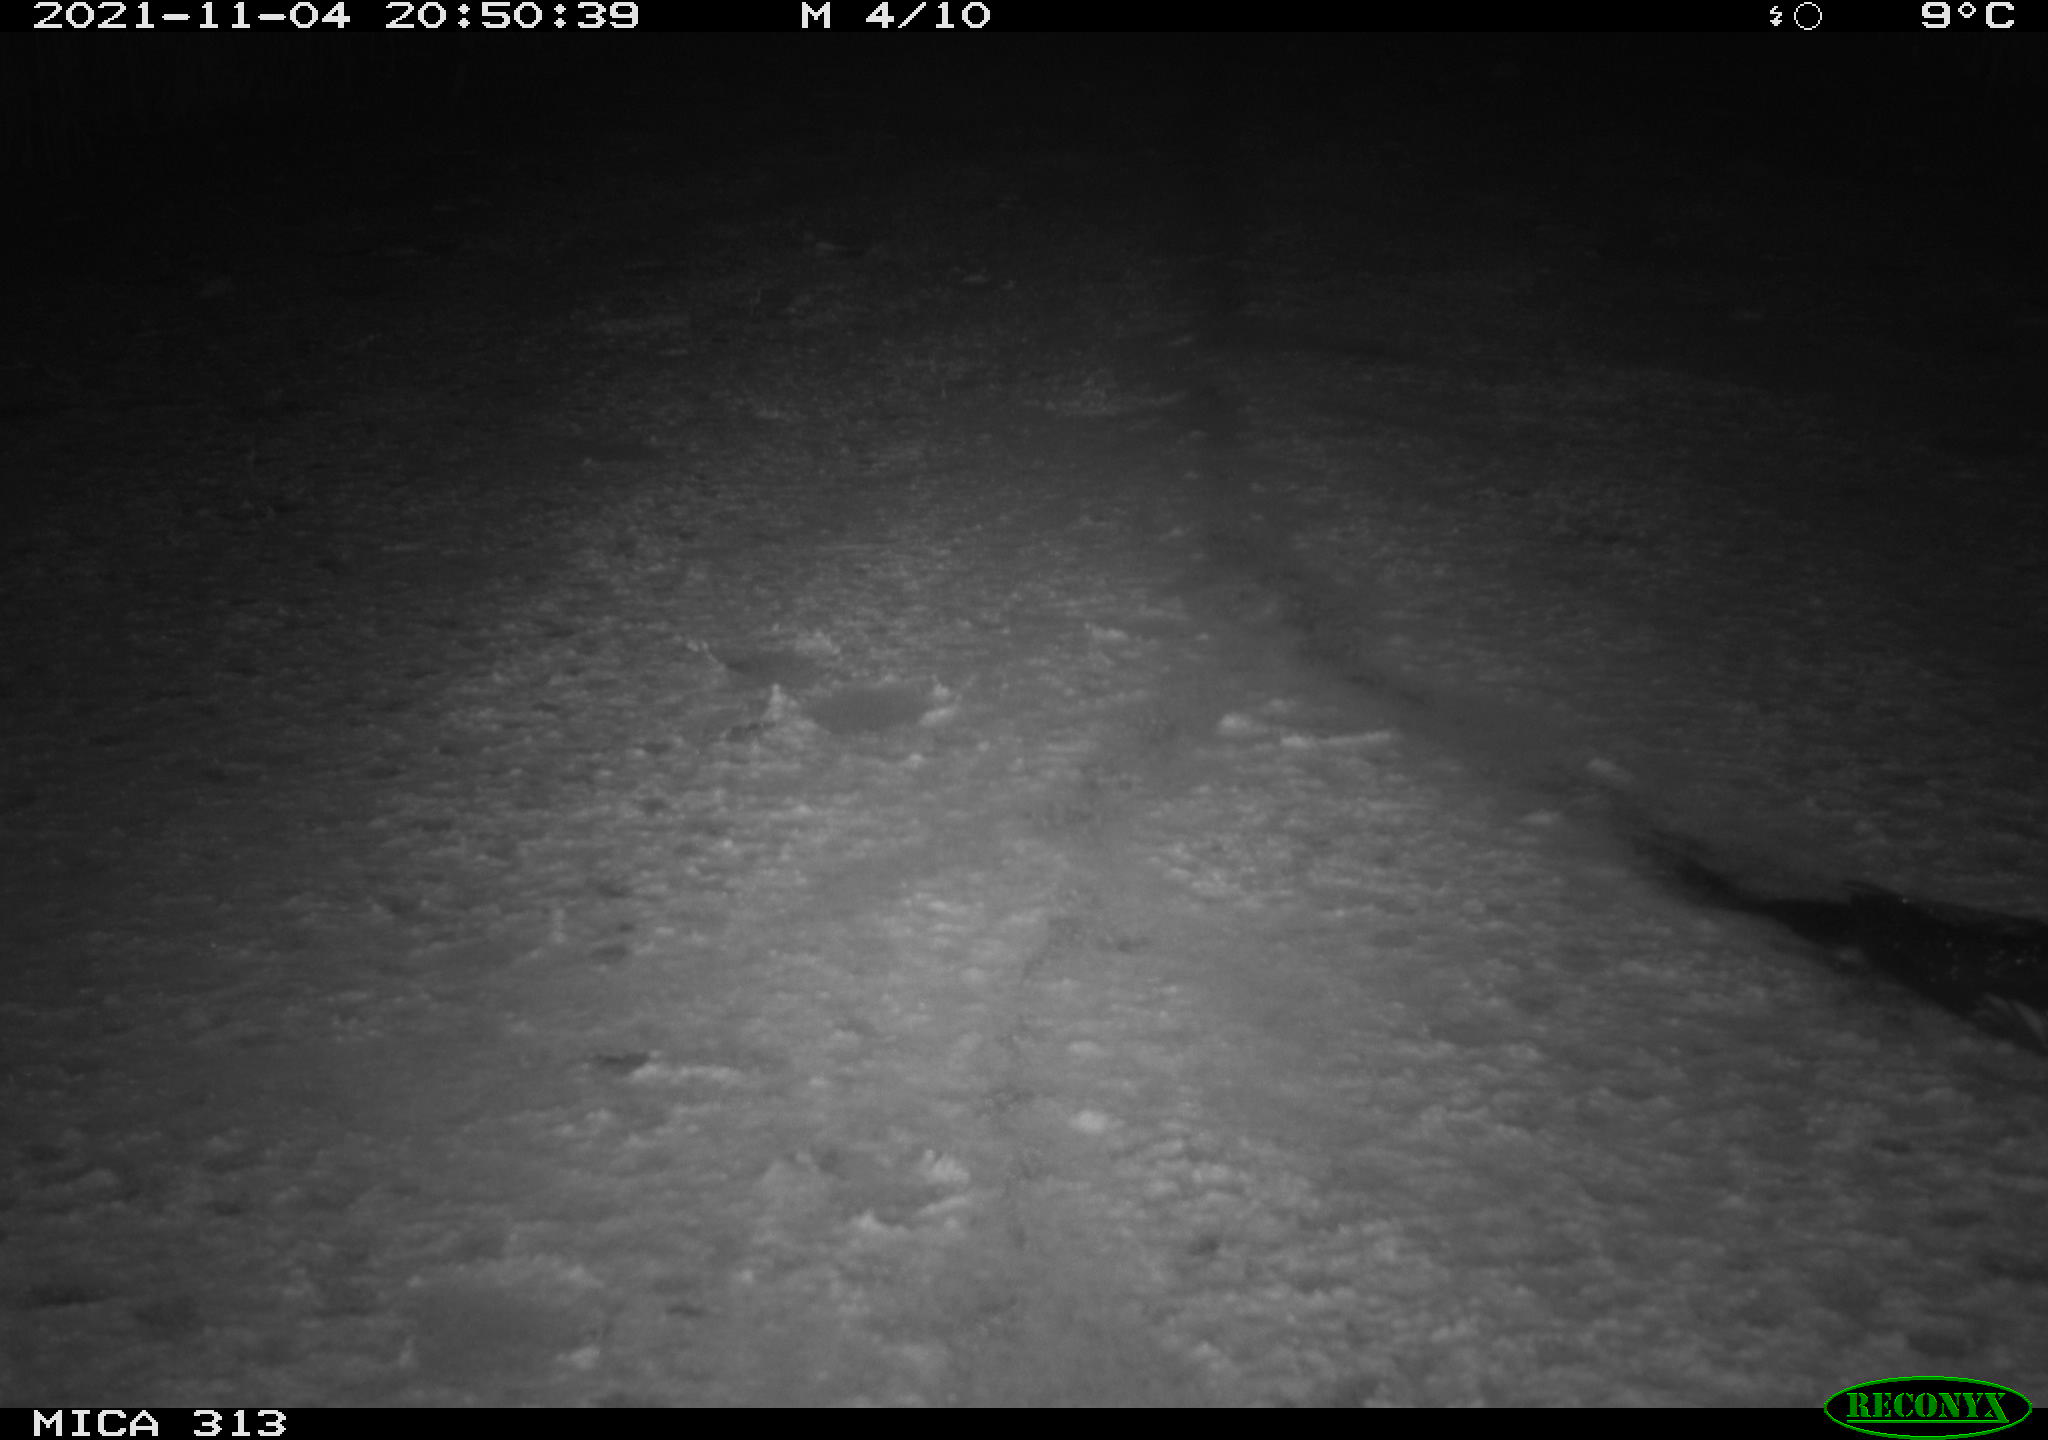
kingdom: Animalia
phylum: Chordata
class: Aves
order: Gruiformes
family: Rallidae
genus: Gallinula
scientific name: Gallinula chloropus
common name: Common moorhen
